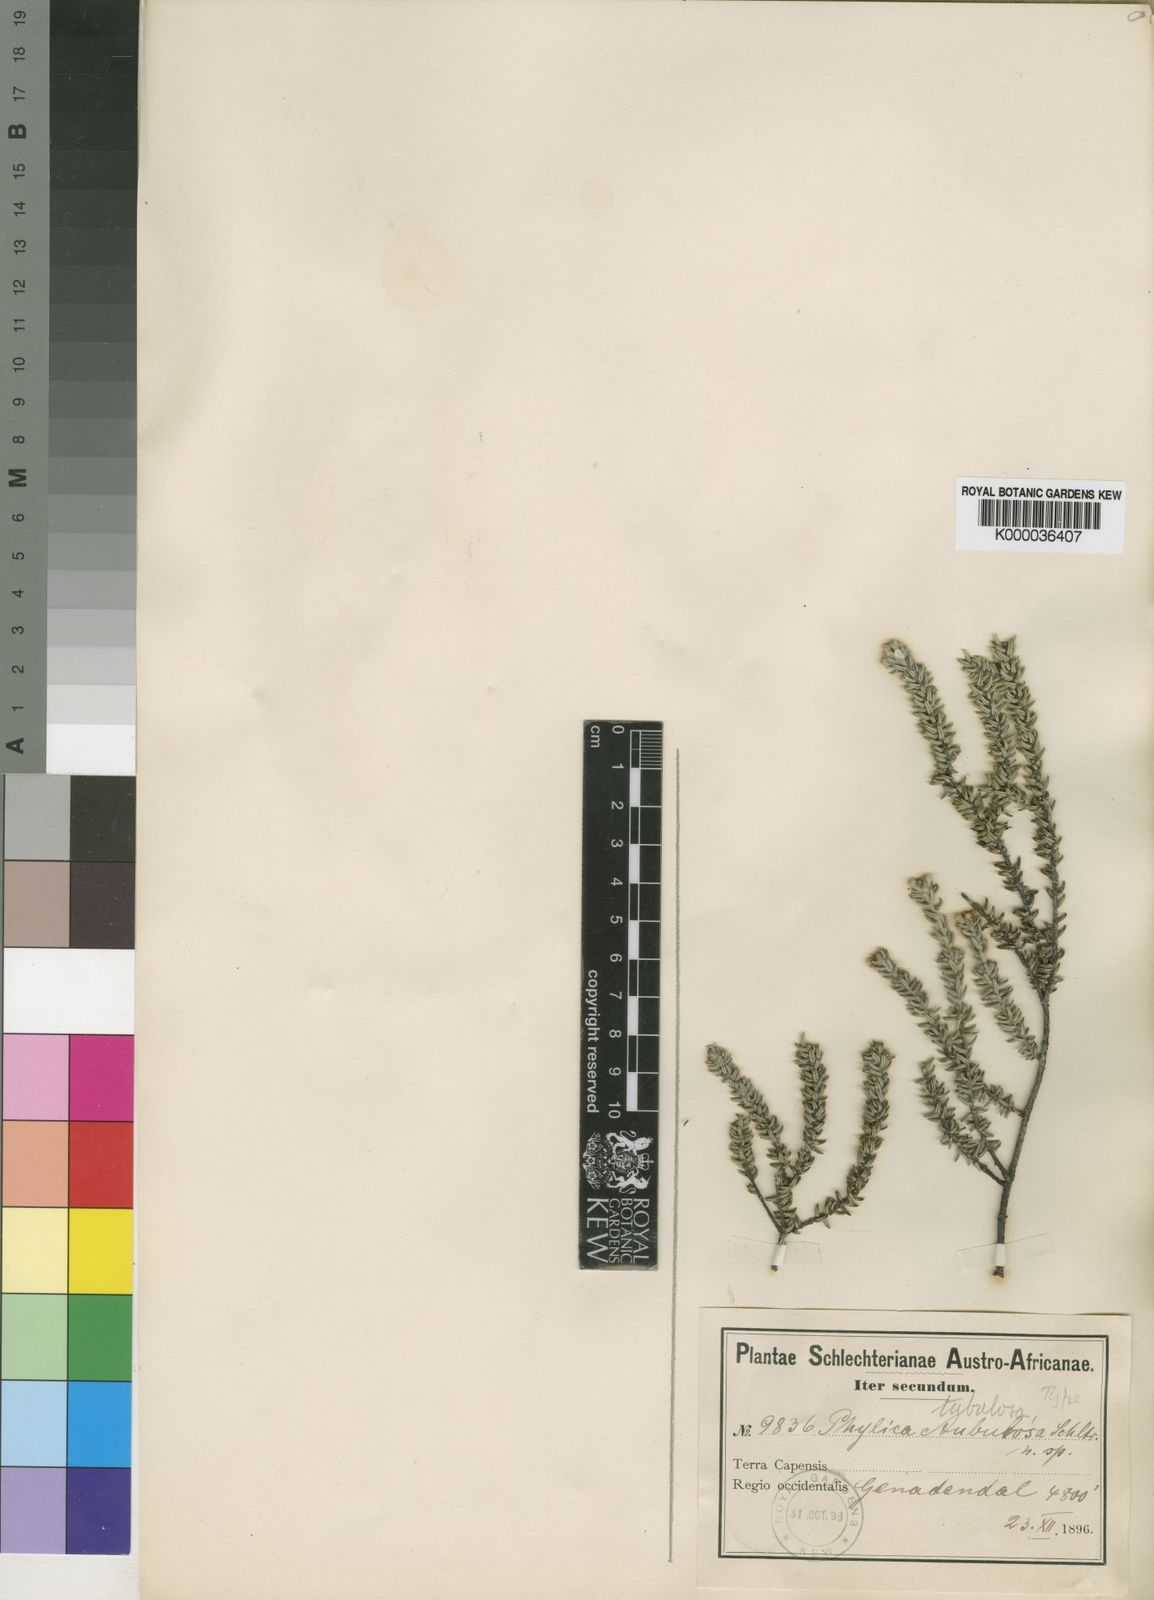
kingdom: Plantae
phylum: Tracheophyta
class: Magnoliopsida
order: Rosales
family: Rhamnaceae
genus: Phylica
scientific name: Phylica tubulosa
